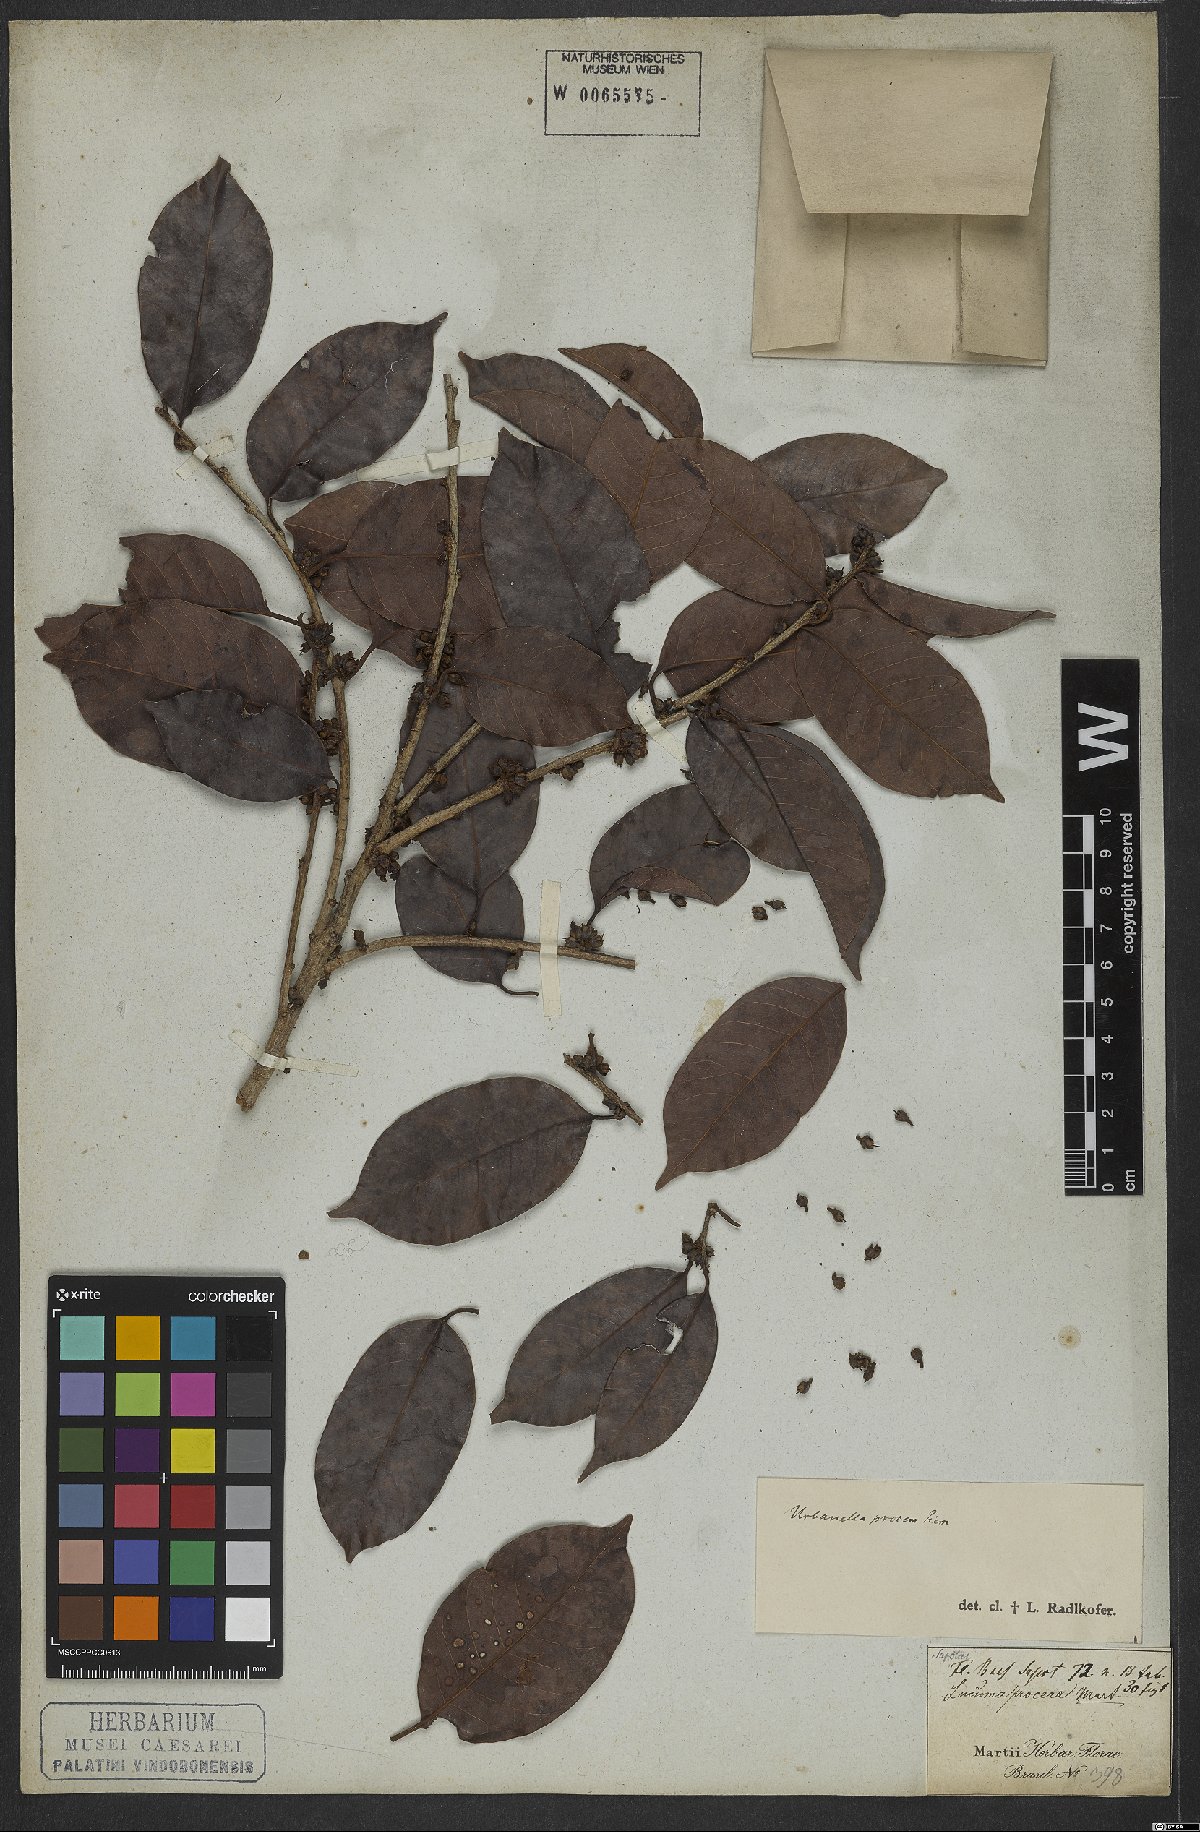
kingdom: Plantae
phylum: Tracheophyta
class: Magnoliopsida
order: Ericales
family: Sapotaceae
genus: Pouteria
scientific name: Pouteria procera
